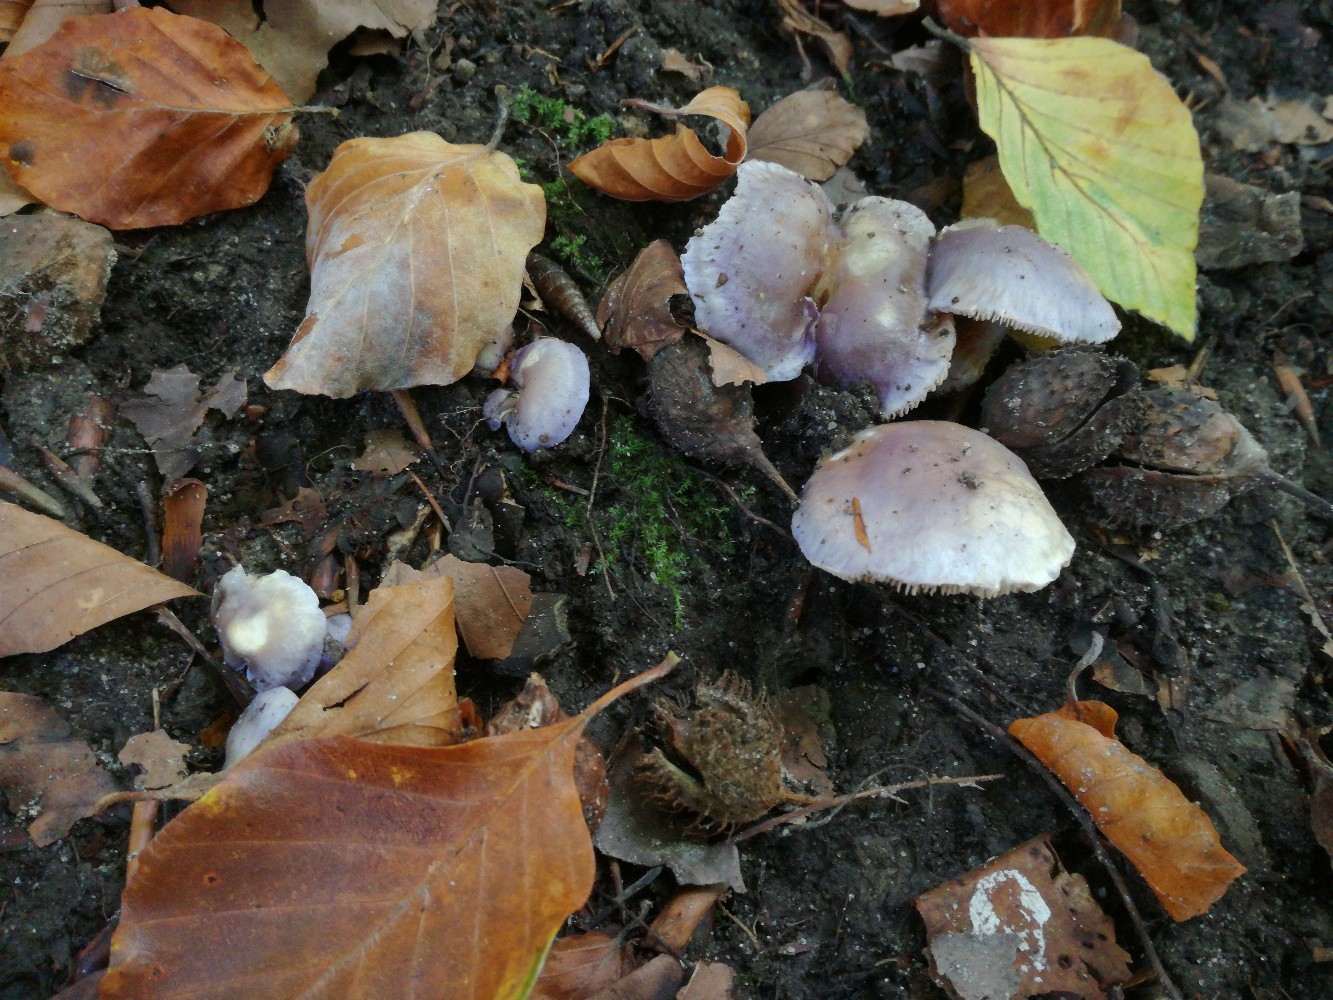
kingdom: Fungi
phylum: Basidiomycota
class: Agaricomycetes
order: Agaricales
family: Cortinariaceae
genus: Thaxterogaster
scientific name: Thaxterogaster croceocoeruleus
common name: blågullig slørhat
